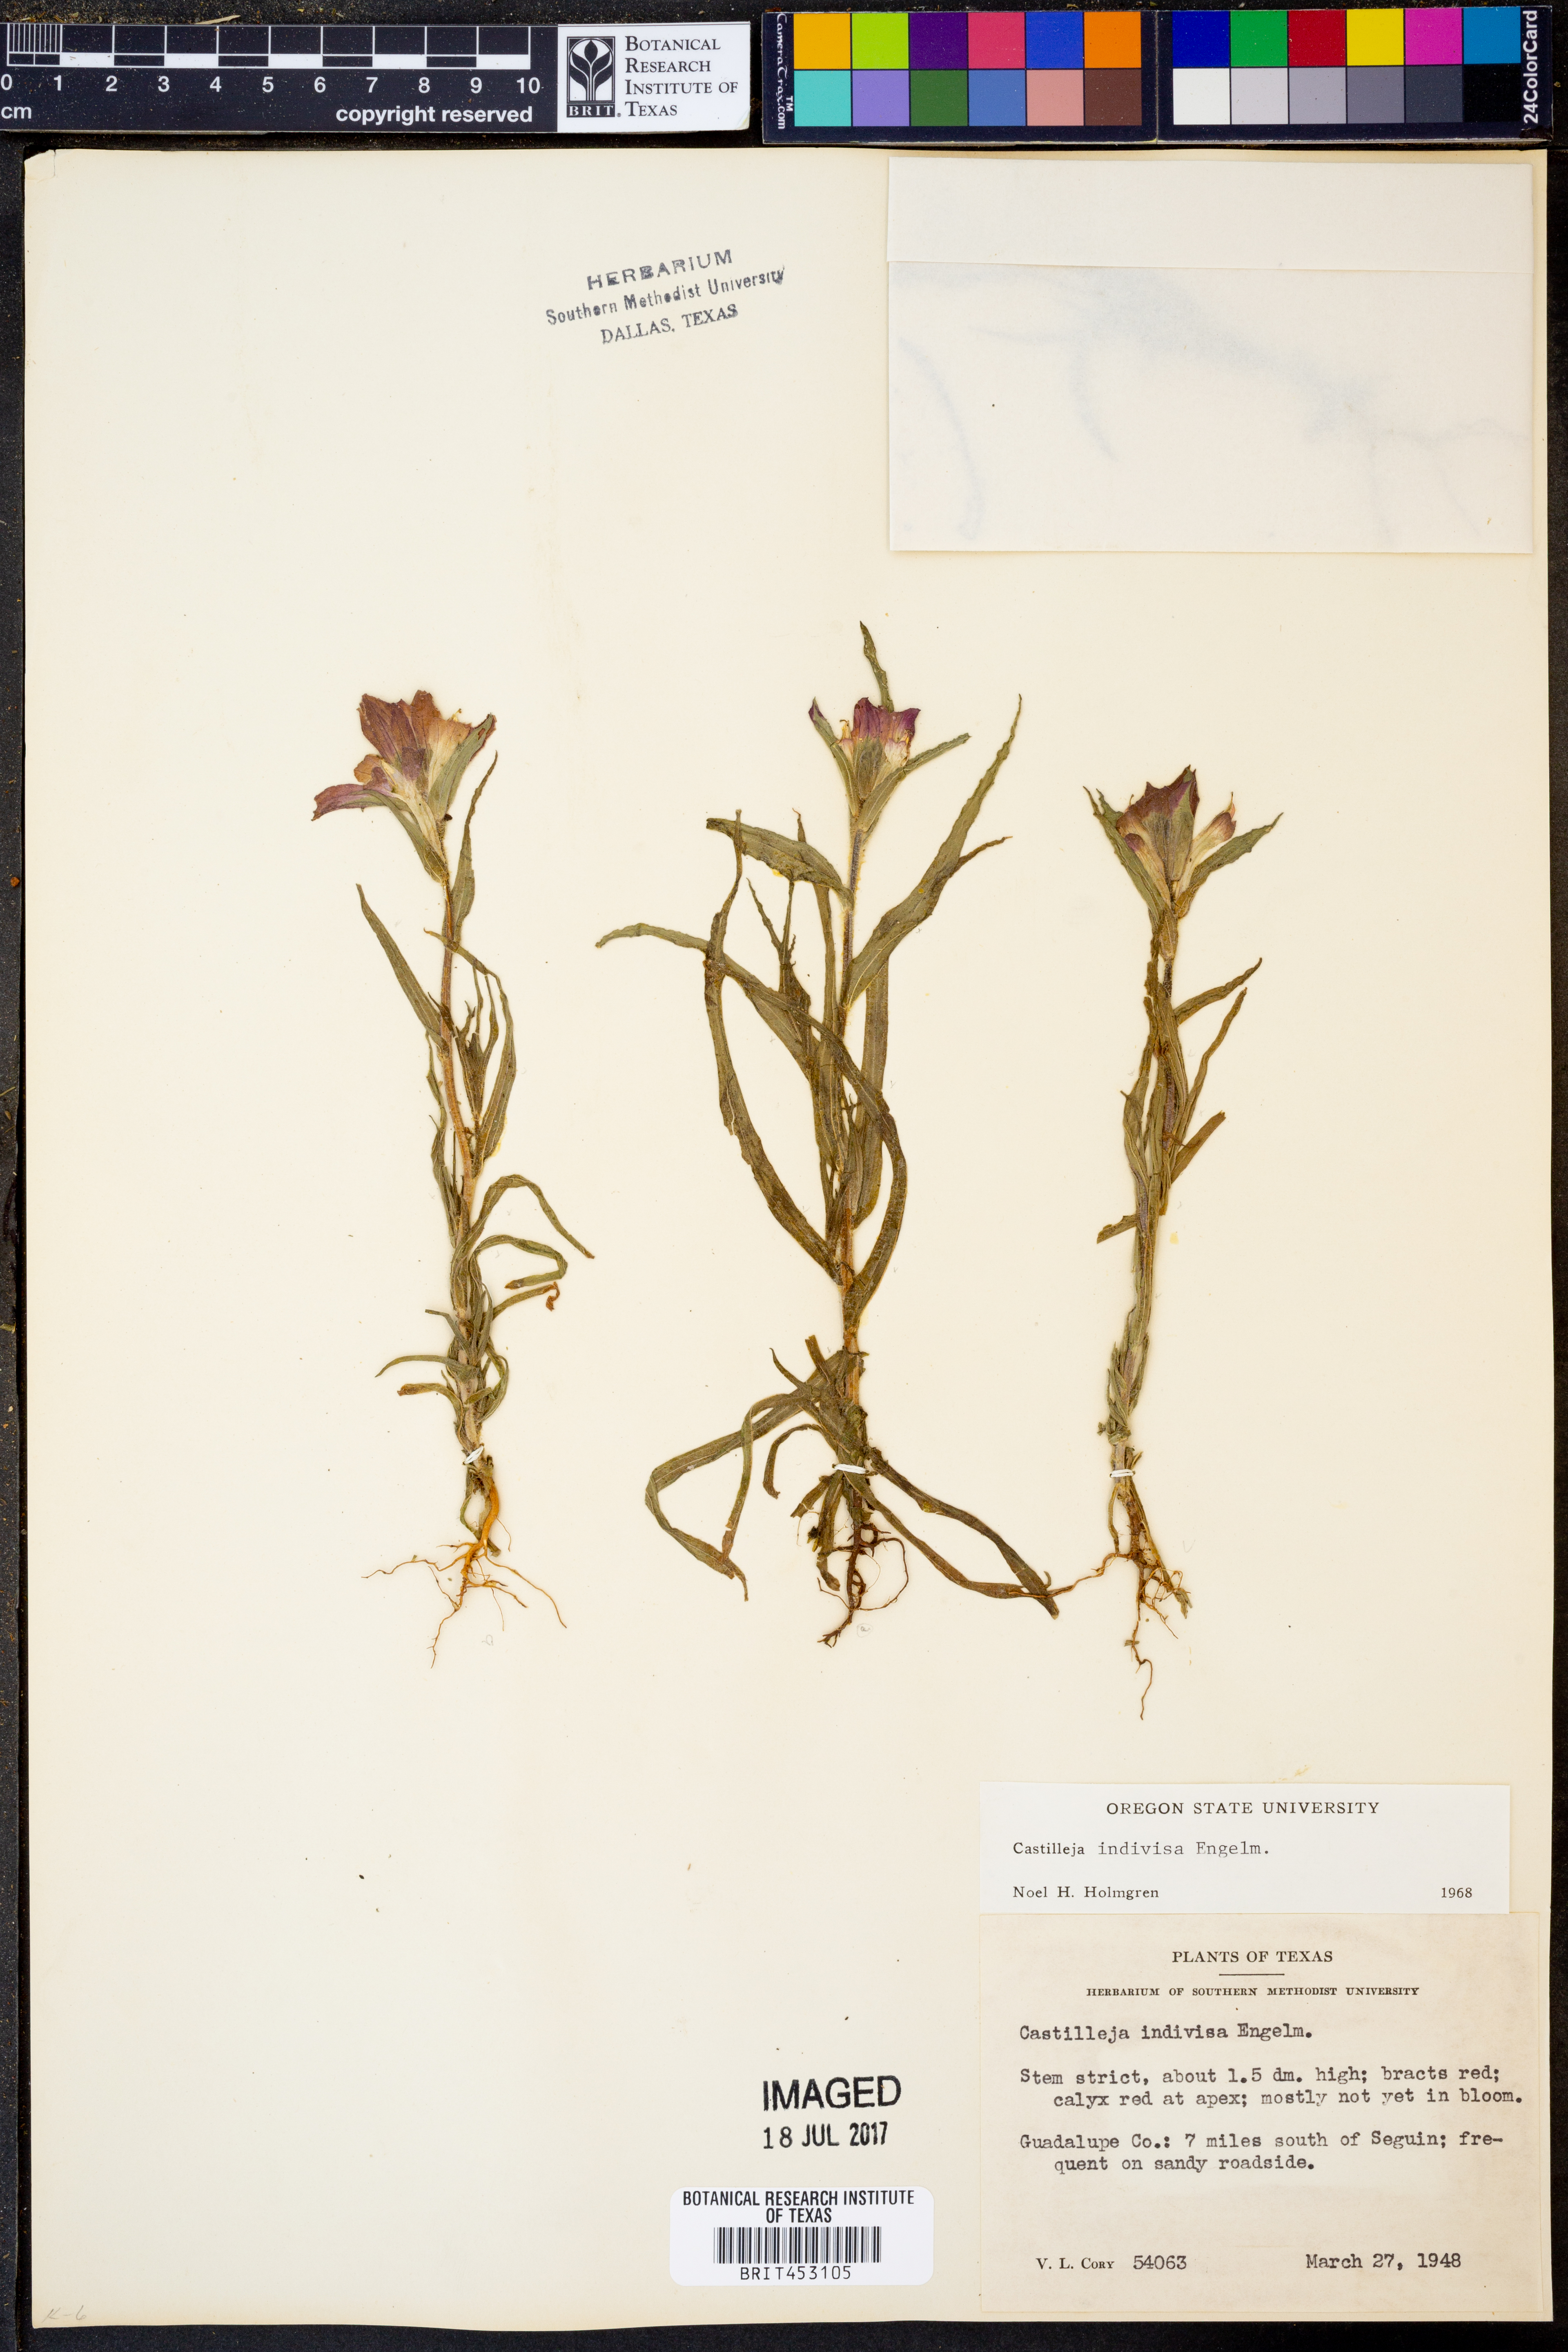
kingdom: Plantae
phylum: Tracheophyta
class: Magnoliopsida
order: Lamiales
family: Orobanchaceae
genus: Castilleja
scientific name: Castilleja indivisa
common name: Texas paintbrush
